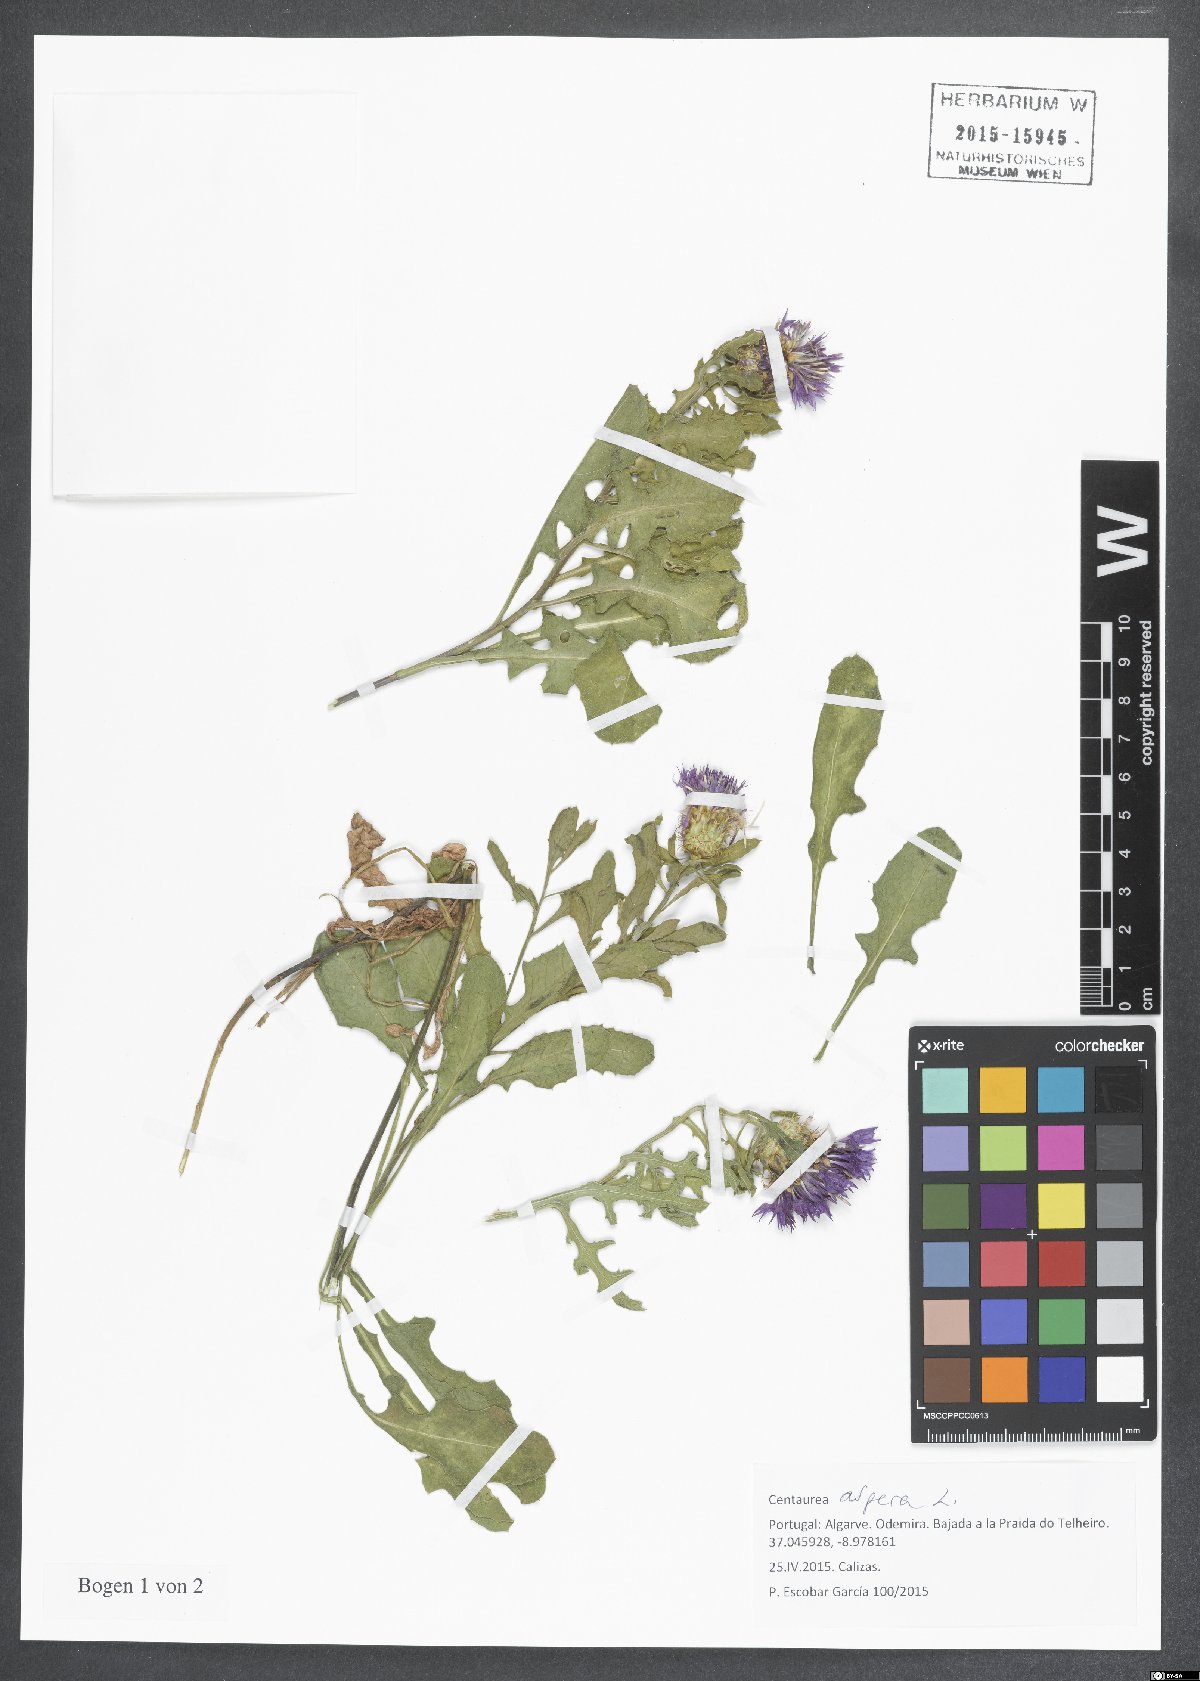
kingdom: Plantae
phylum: Tracheophyta
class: Magnoliopsida
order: Asterales
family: Asteraceae
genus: Centaurea
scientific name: Centaurea aspera
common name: Rough star-thistle
